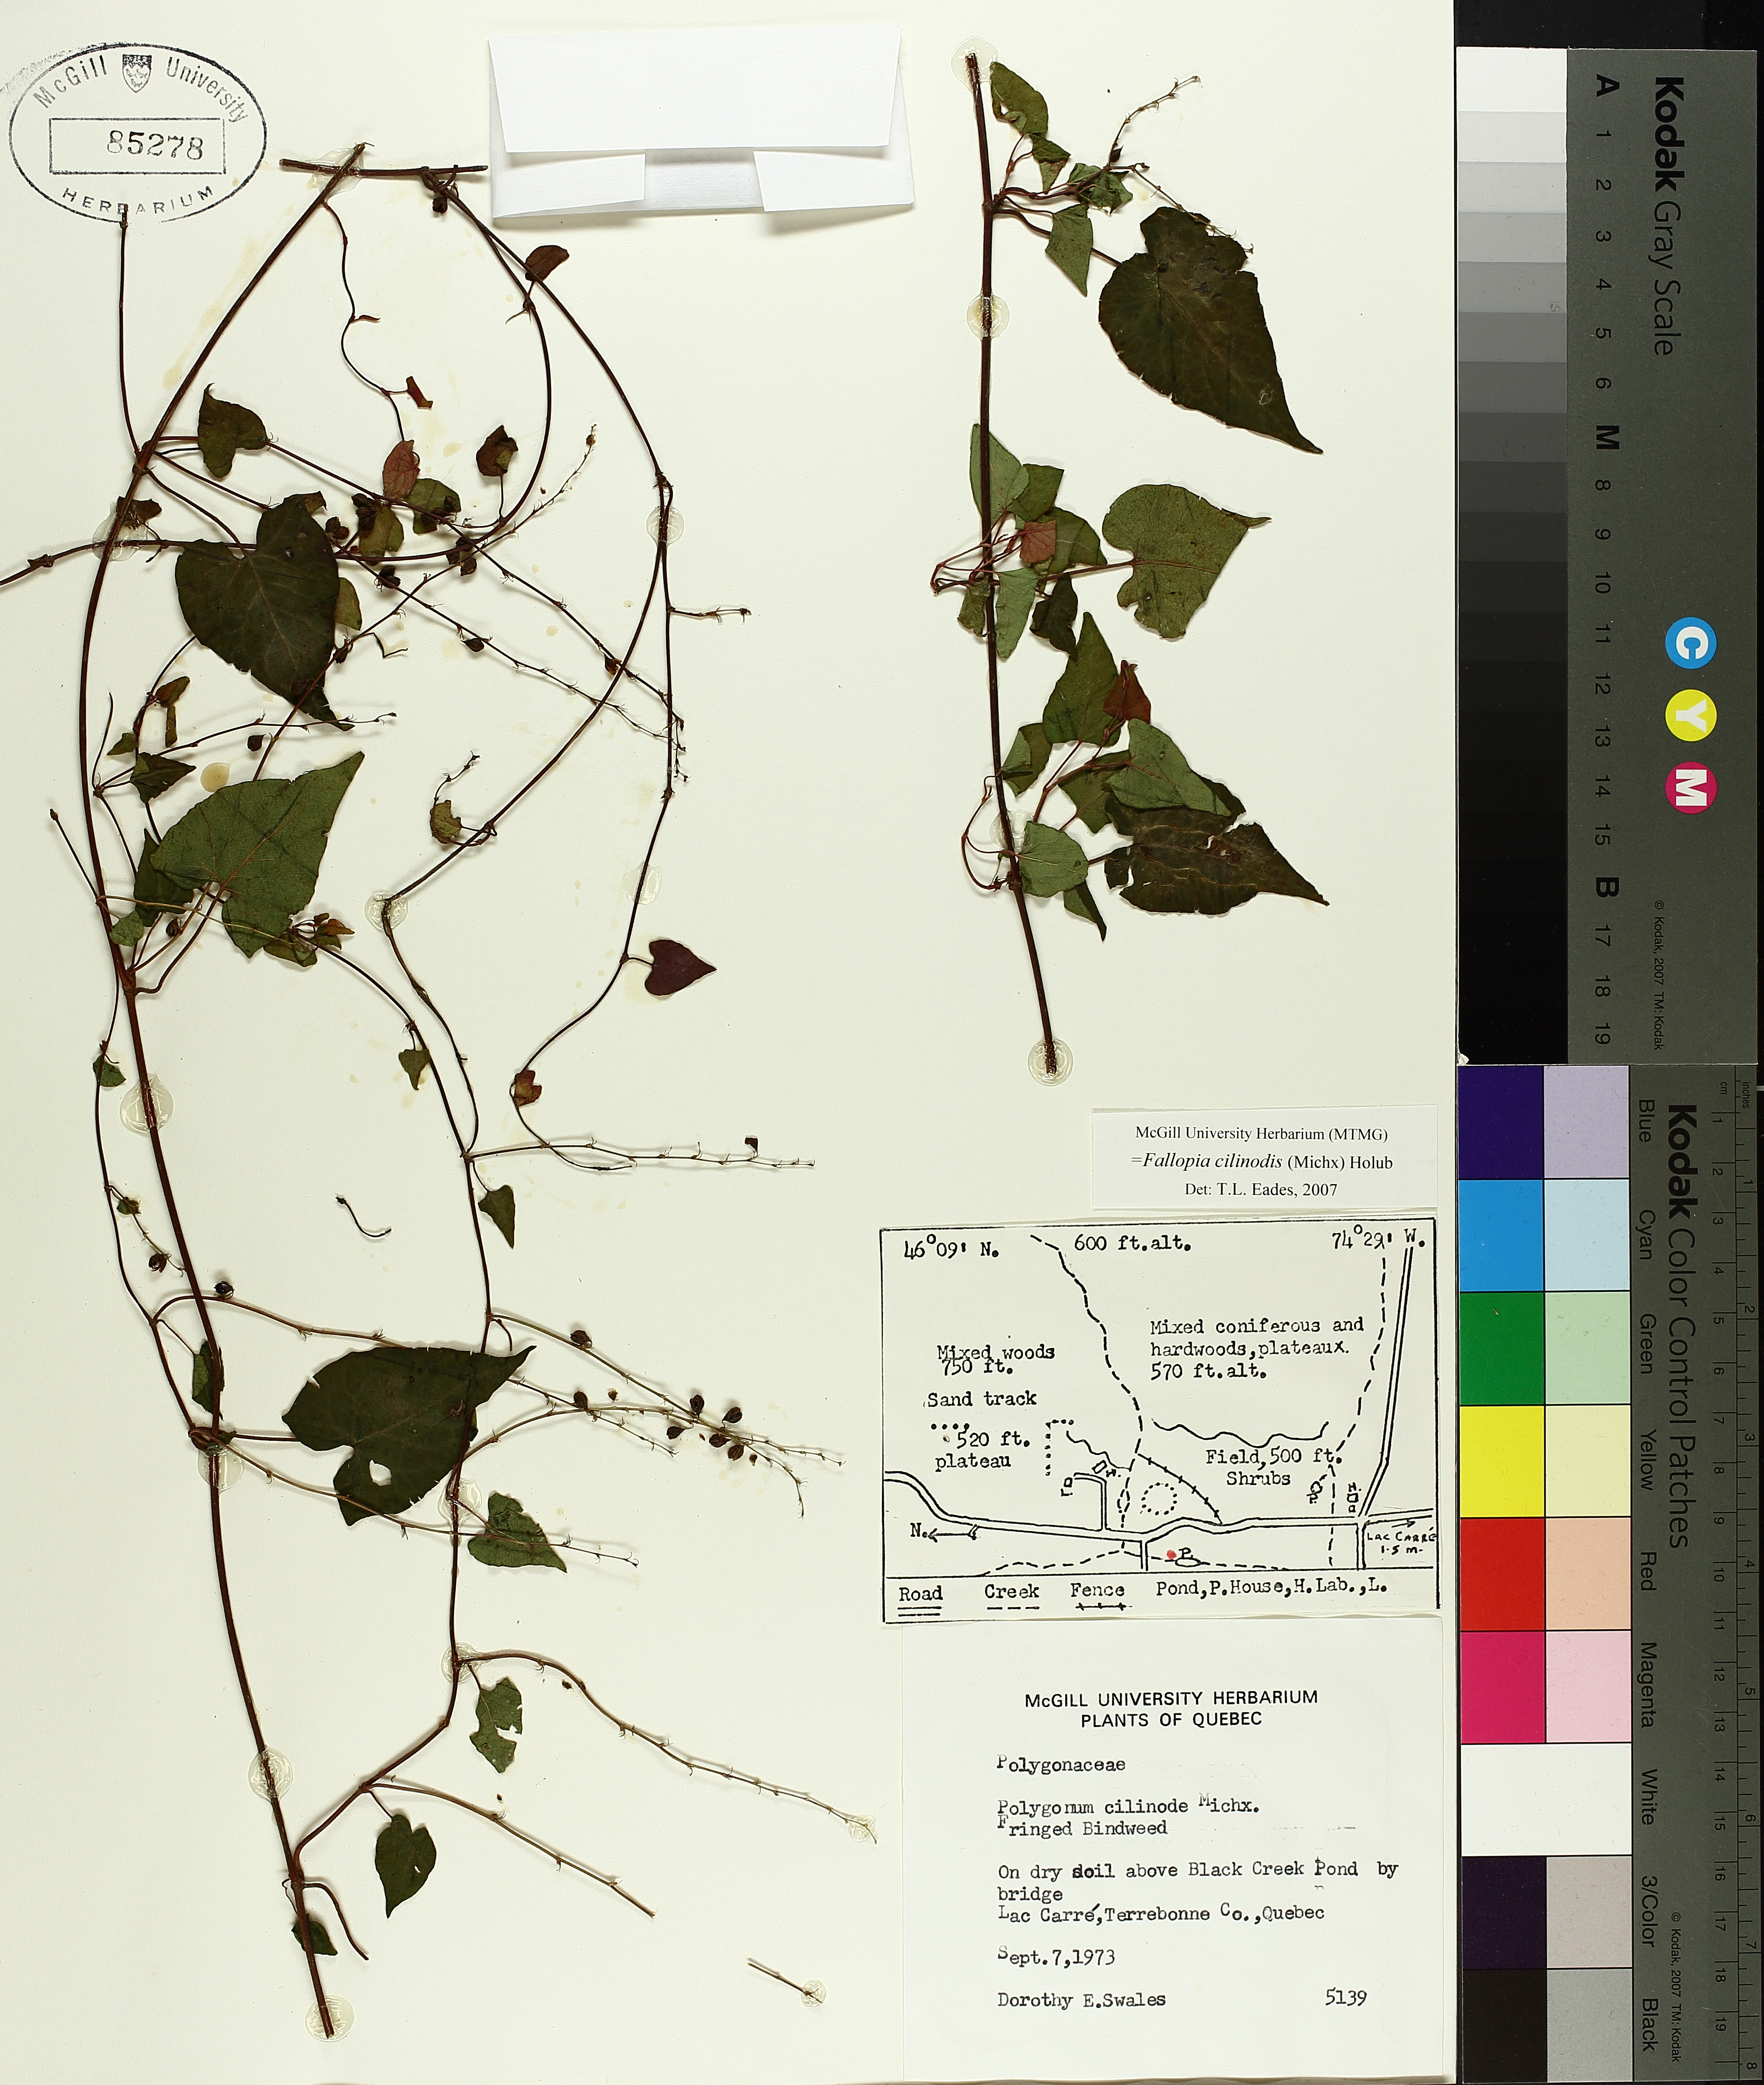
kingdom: Plantae
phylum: Tracheophyta
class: Magnoliopsida
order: Caryophyllales
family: Polygonaceae
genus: Parogonum
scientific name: Parogonum ciliinode
